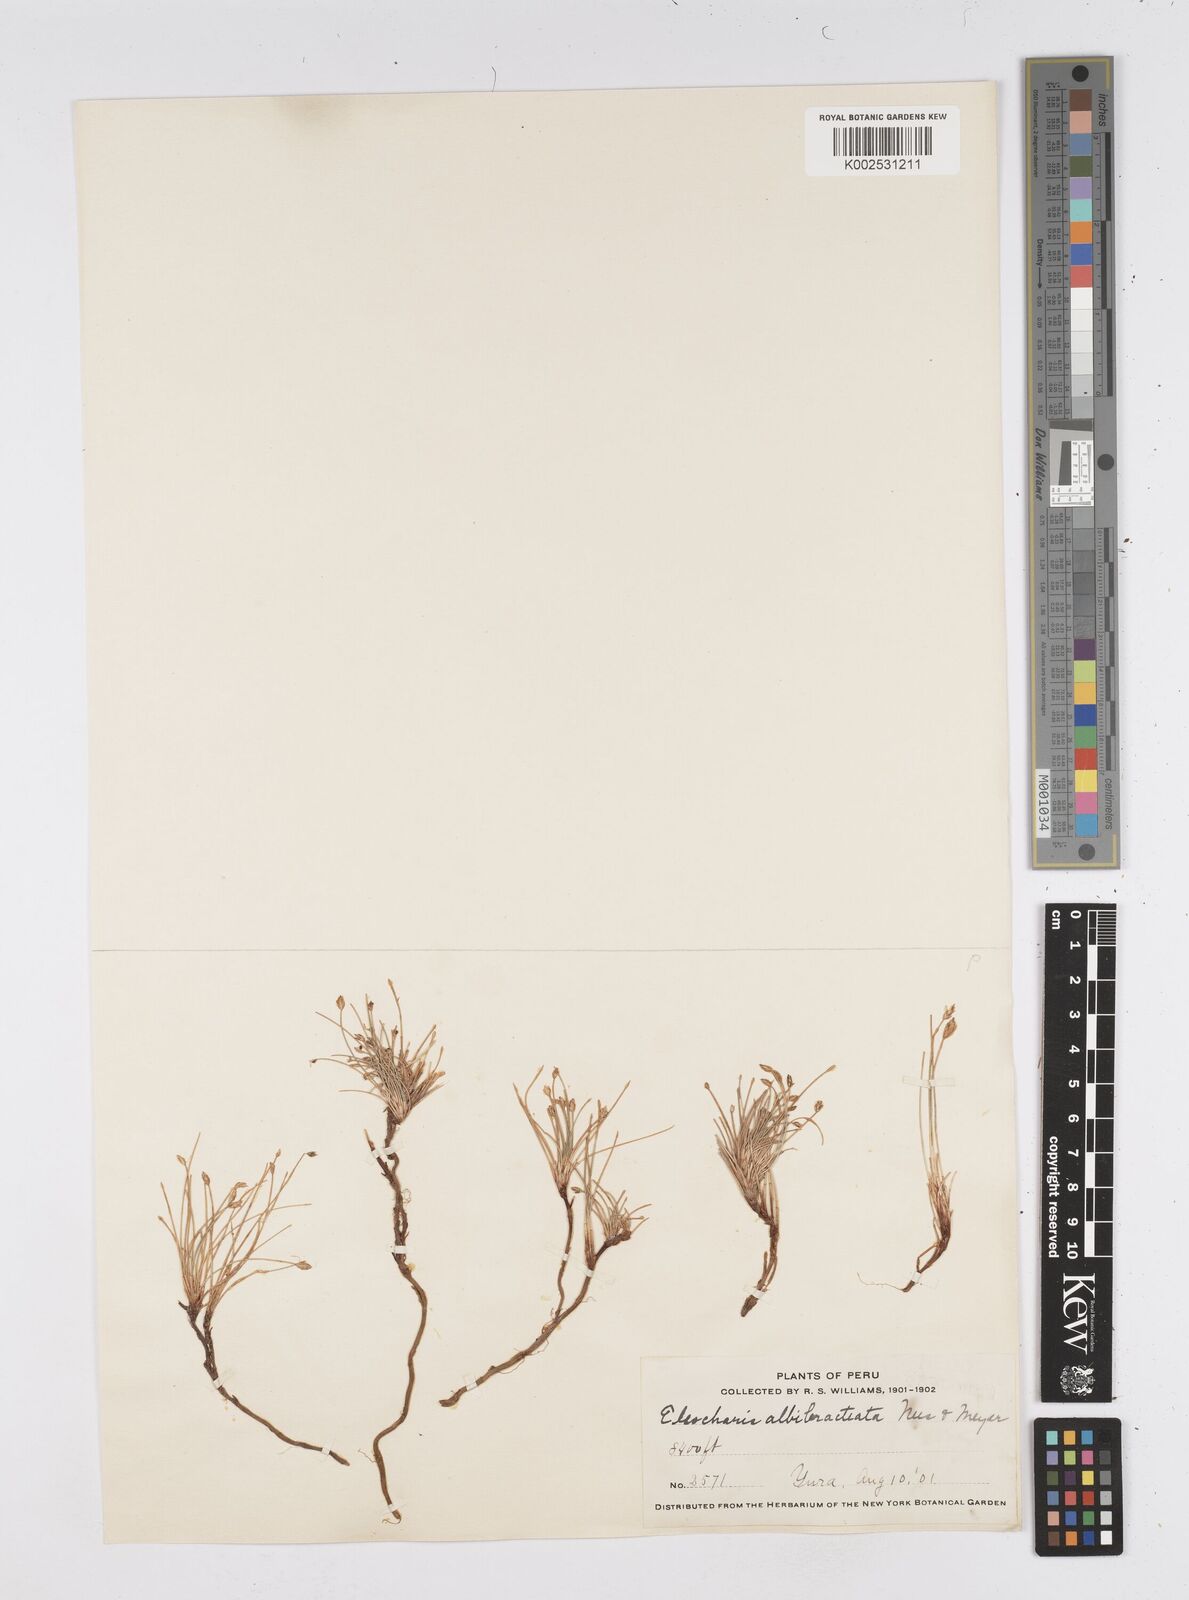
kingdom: Plantae
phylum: Tracheophyta
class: Liliopsida
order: Poales
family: Cyperaceae
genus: Eleocharis
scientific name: Eleocharis albibracteata
